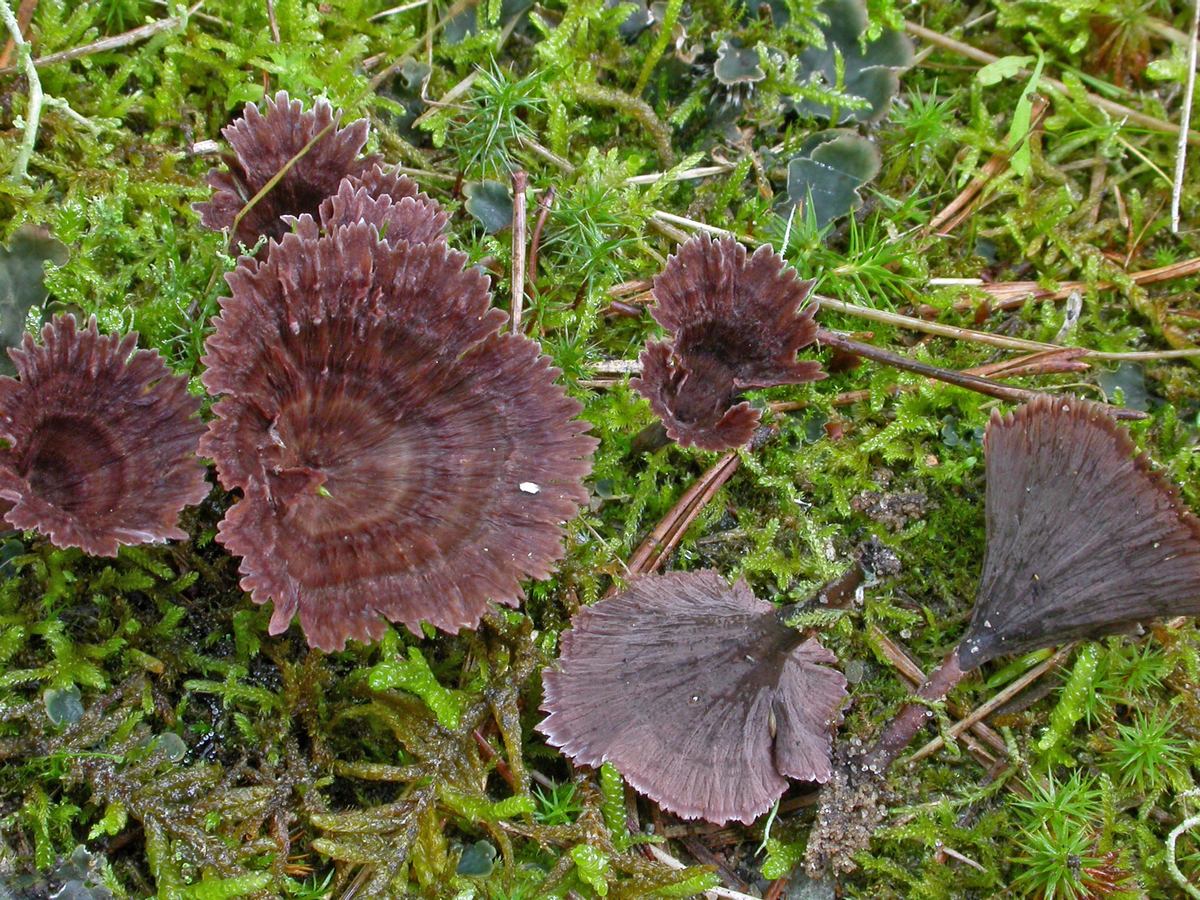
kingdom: Fungi
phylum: Basidiomycota
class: Agaricomycetes
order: Thelephorales
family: Thelephoraceae
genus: Thelephora
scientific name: Thelephora caryophyllea
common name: tragt-frynsesvamp
